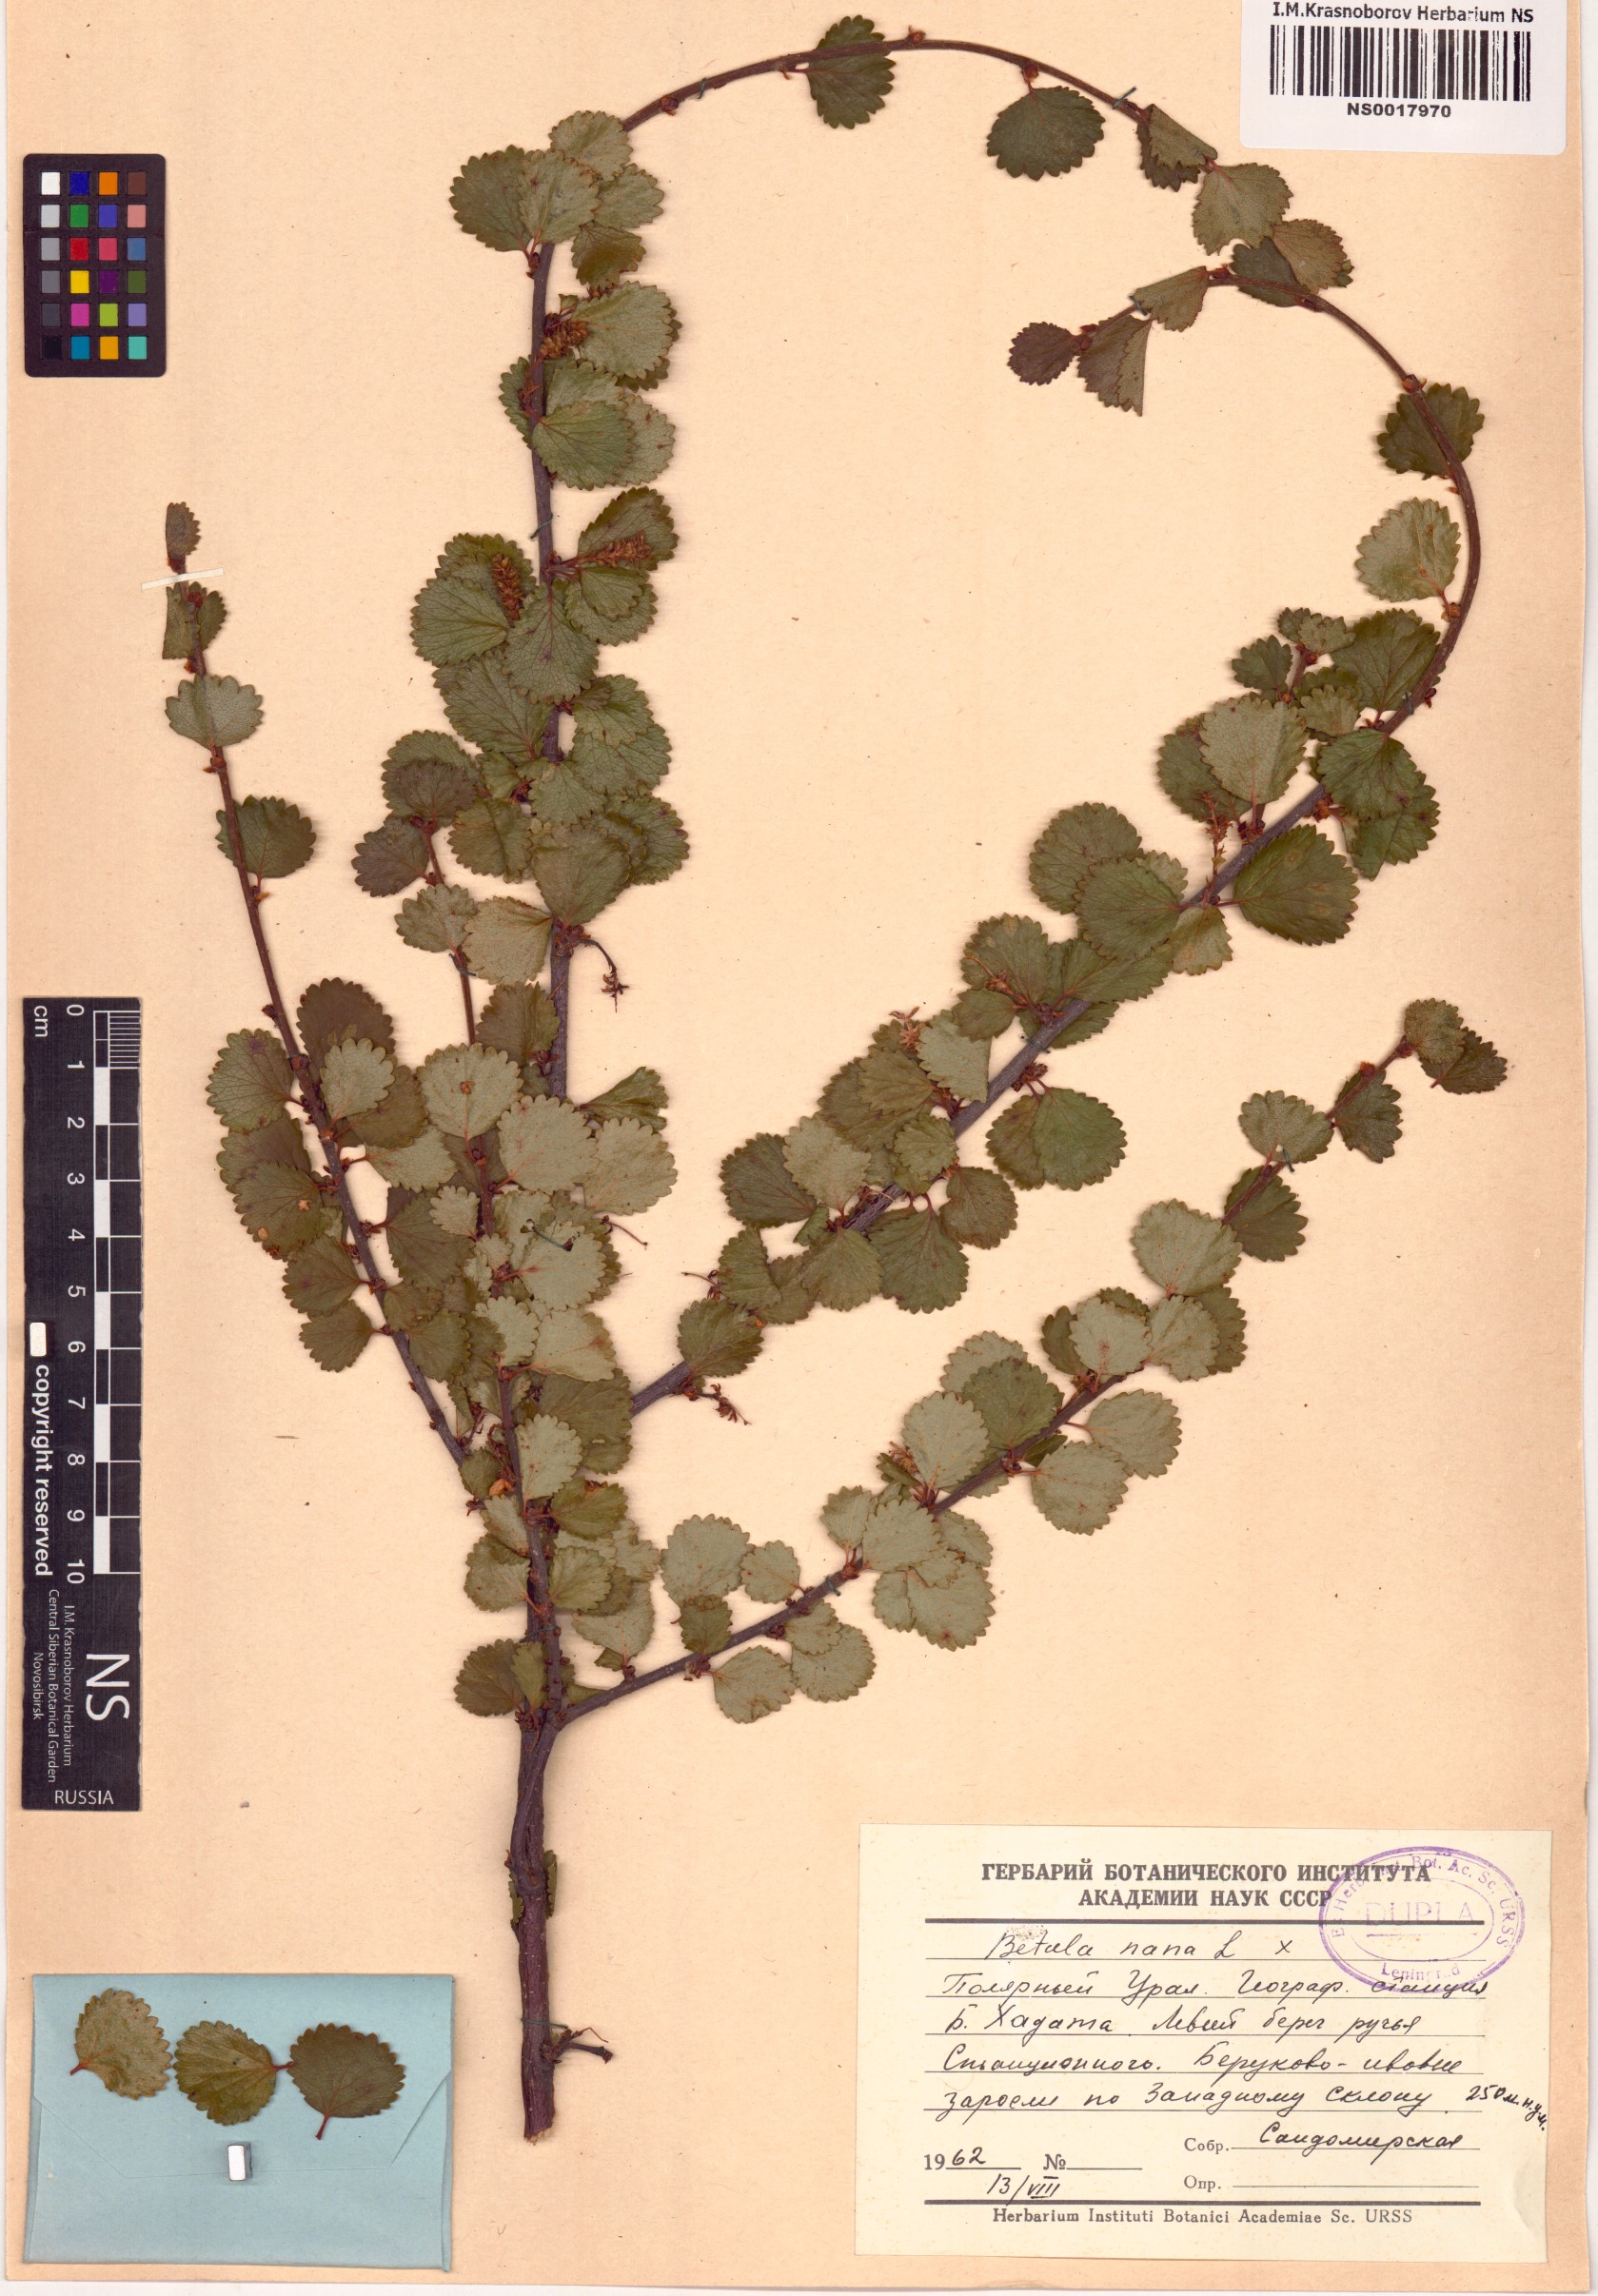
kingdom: Plantae
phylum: Tracheophyta
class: Magnoliopsida
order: Fagales
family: Betulaceae
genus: Betula
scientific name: Betula nana
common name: Arctic dwarf birch
